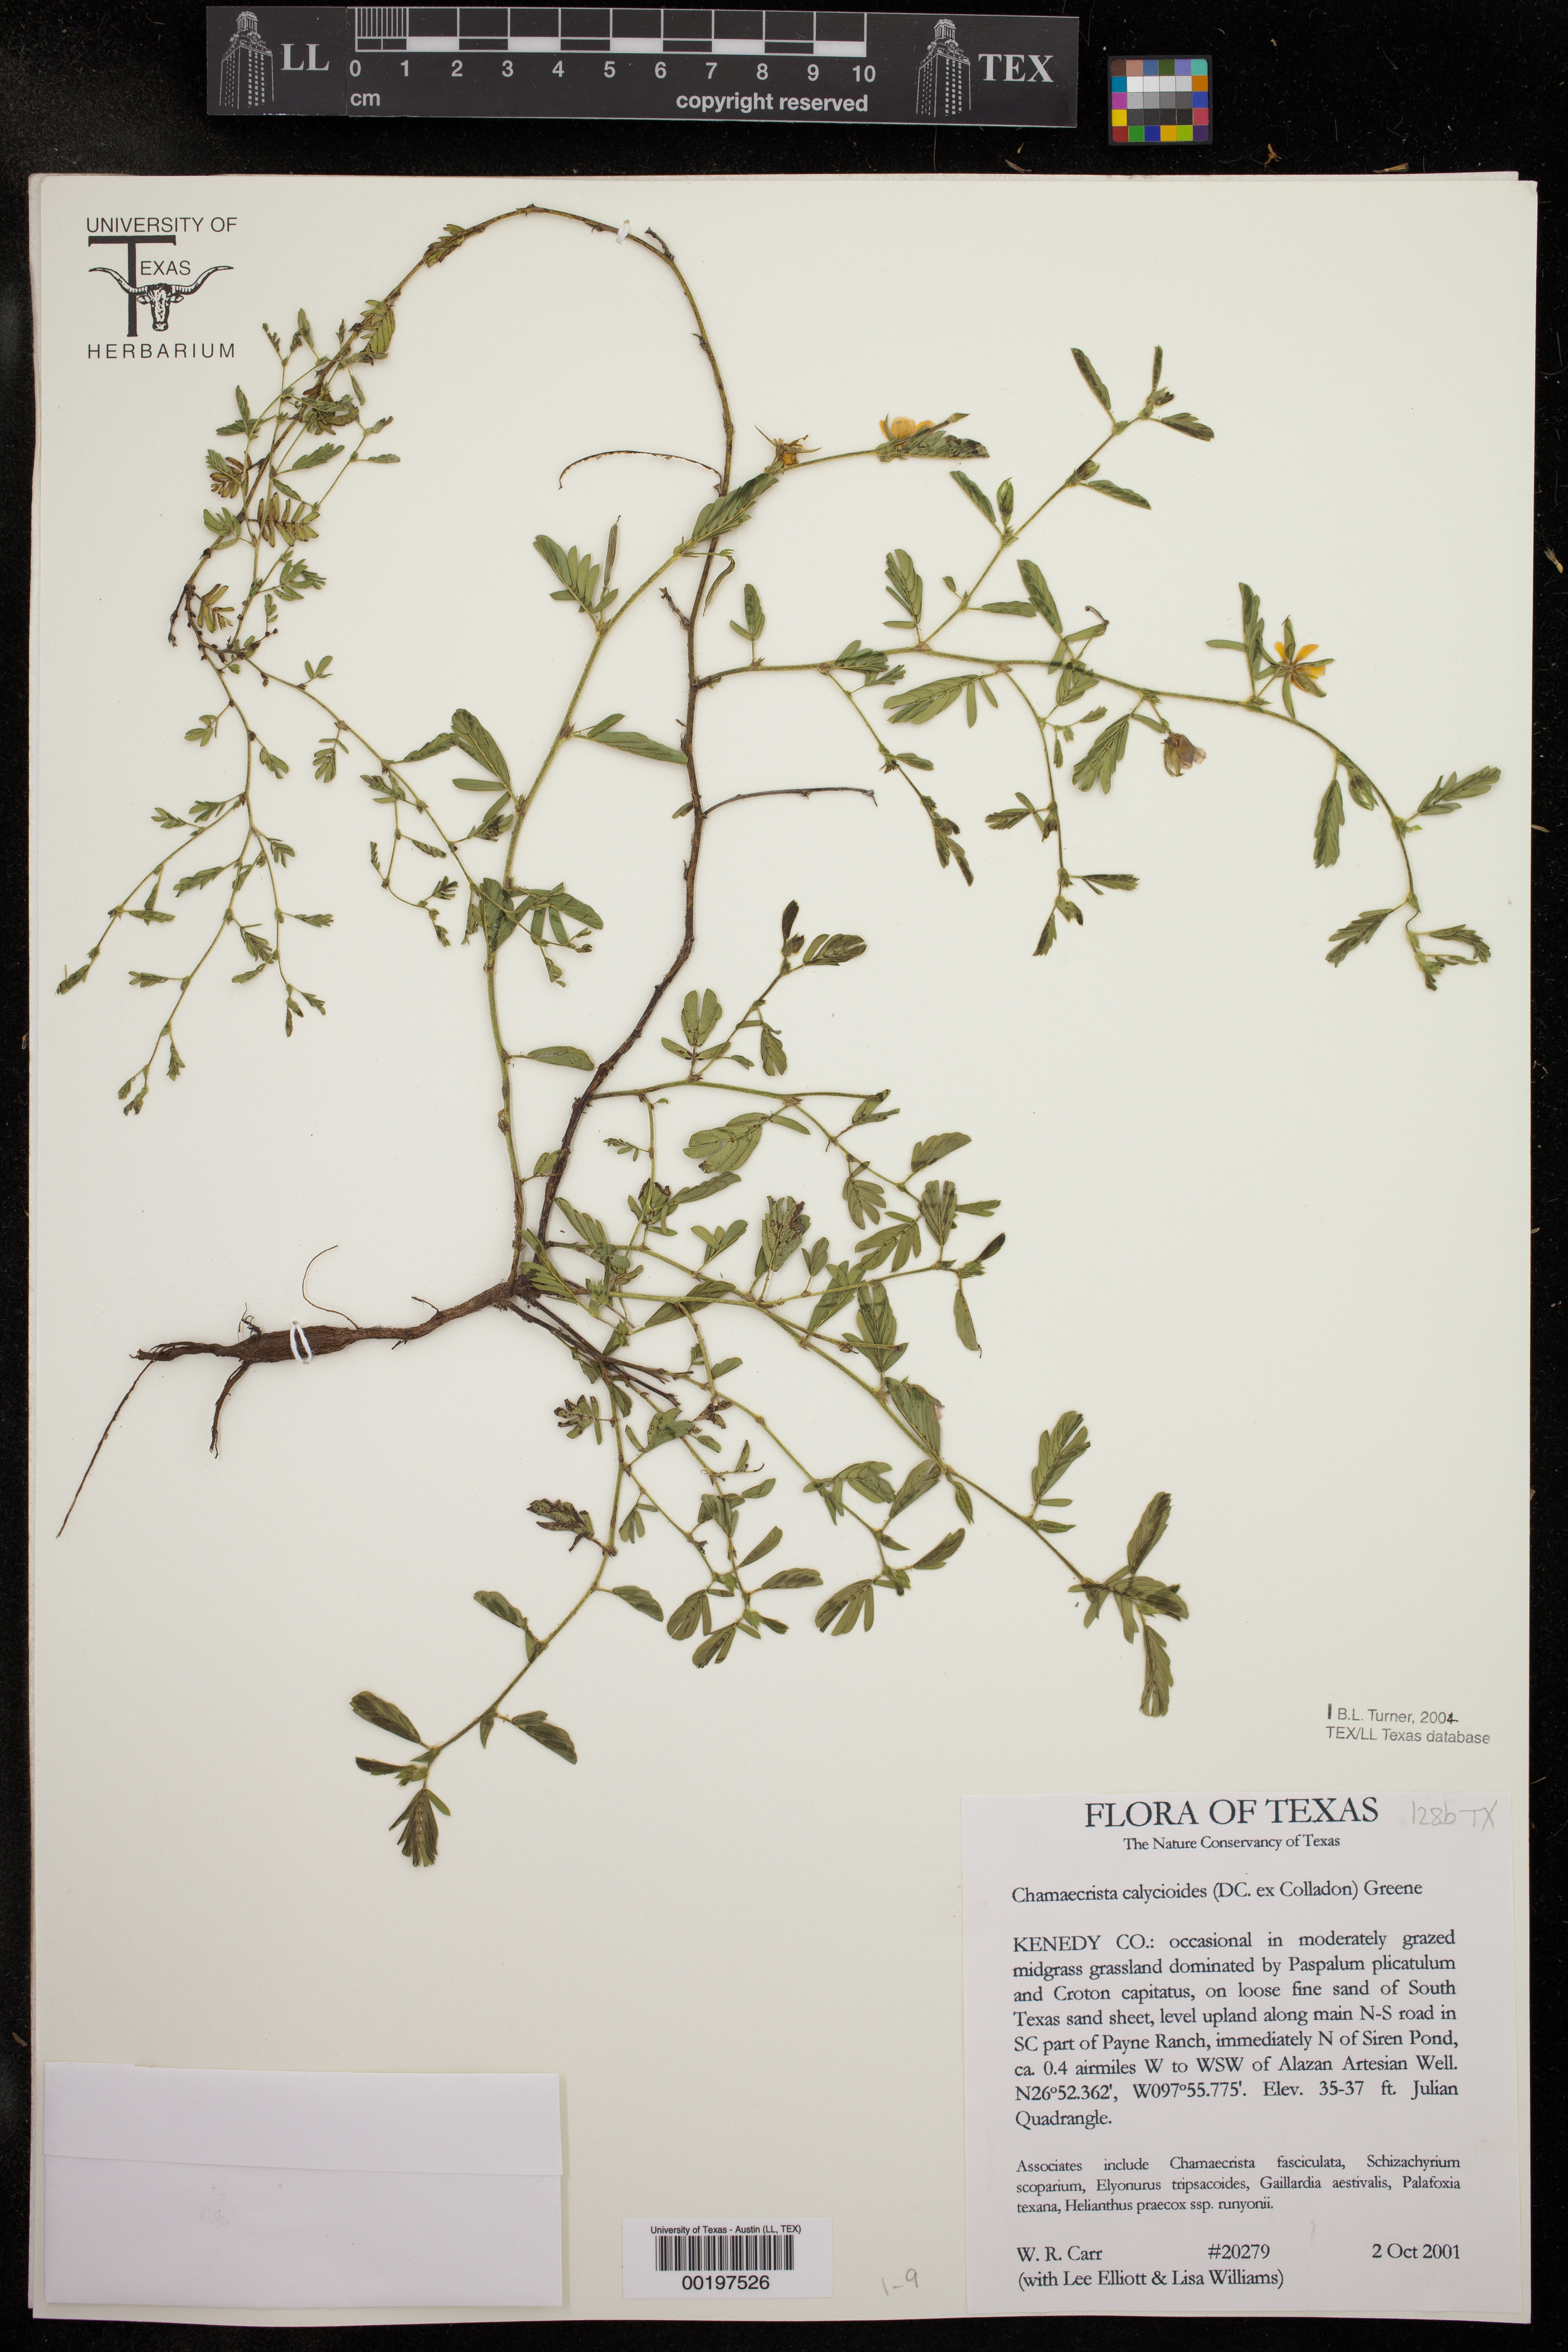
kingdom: Plantae
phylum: Tracheophyta
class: Magnoliopsida
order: Fabales
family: Fabaceae
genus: Chamaecrista
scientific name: Chamaecrista calycioides
